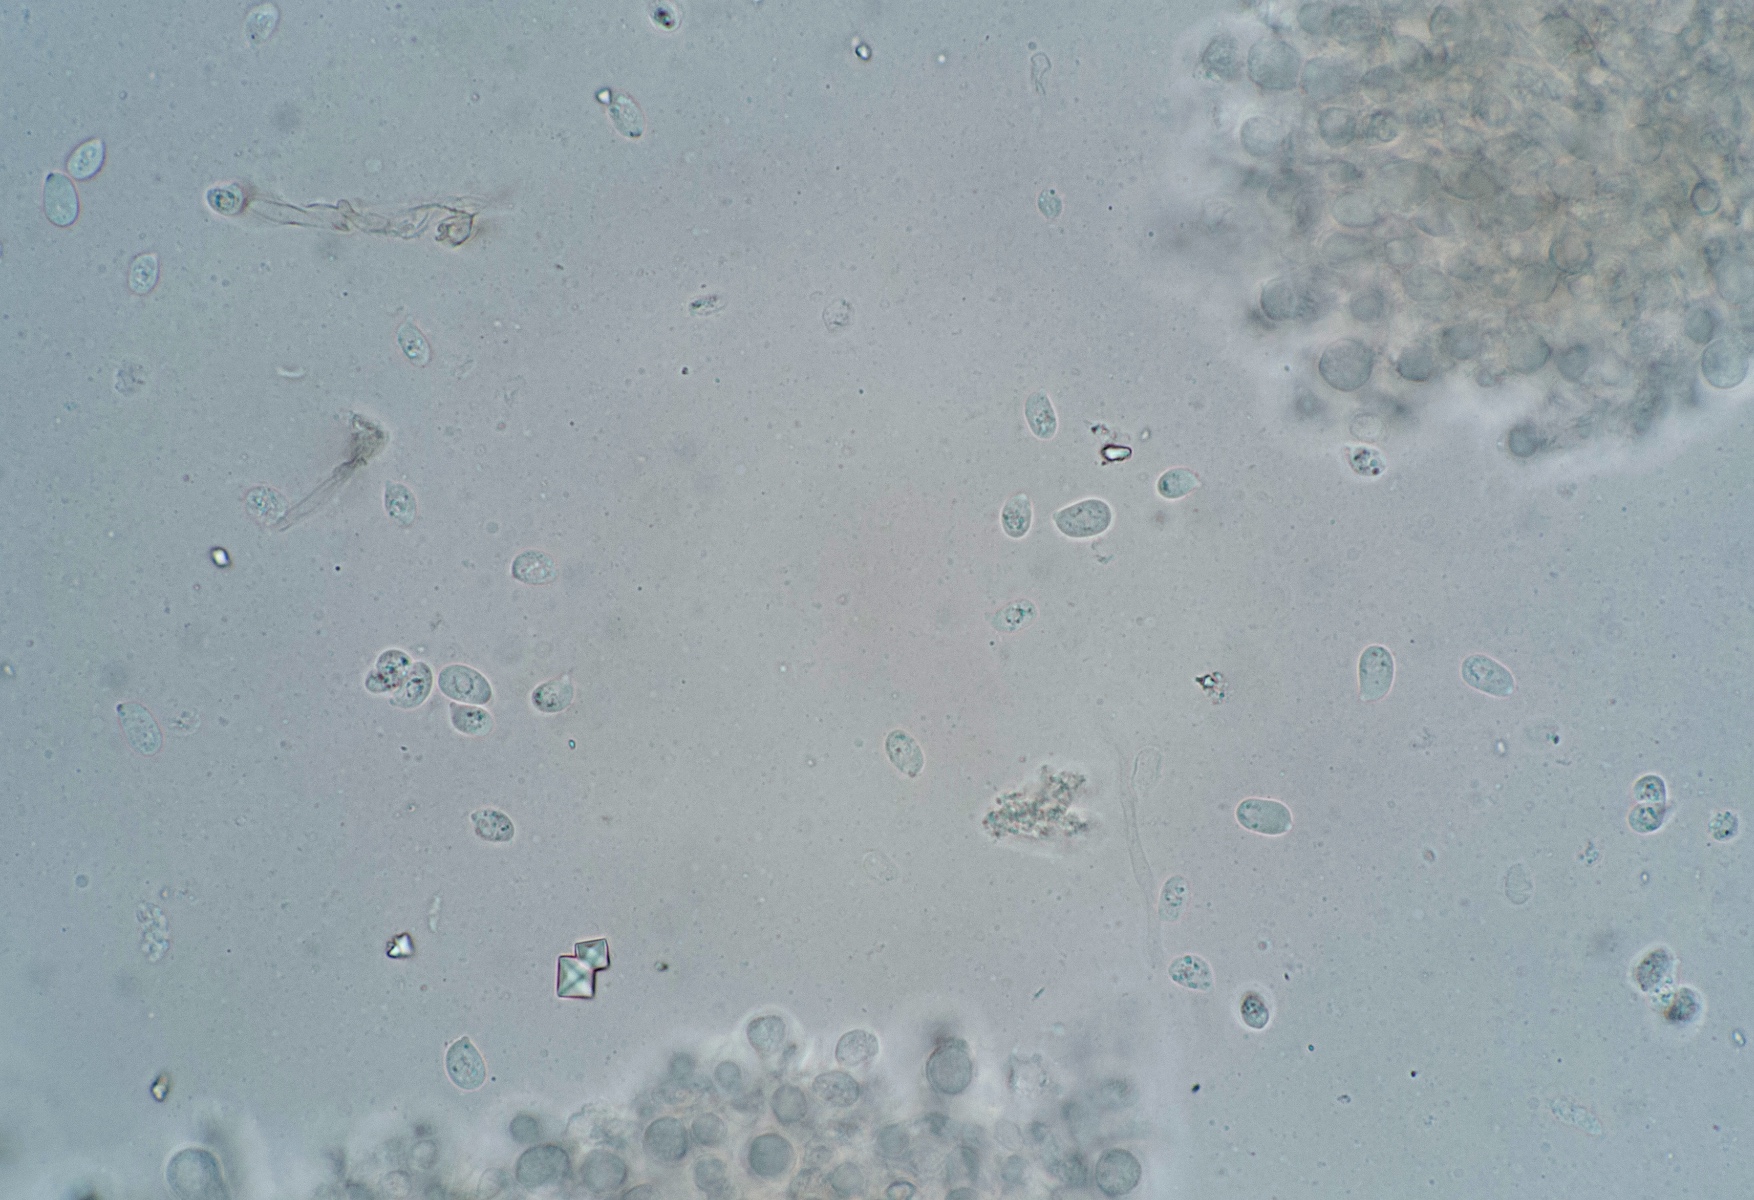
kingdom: Fungi
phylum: Basidiomycota
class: Agaricomycetes
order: Agaricales
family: Hygrophoraceae
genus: Arrhenia
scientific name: Arrhenia rustica
